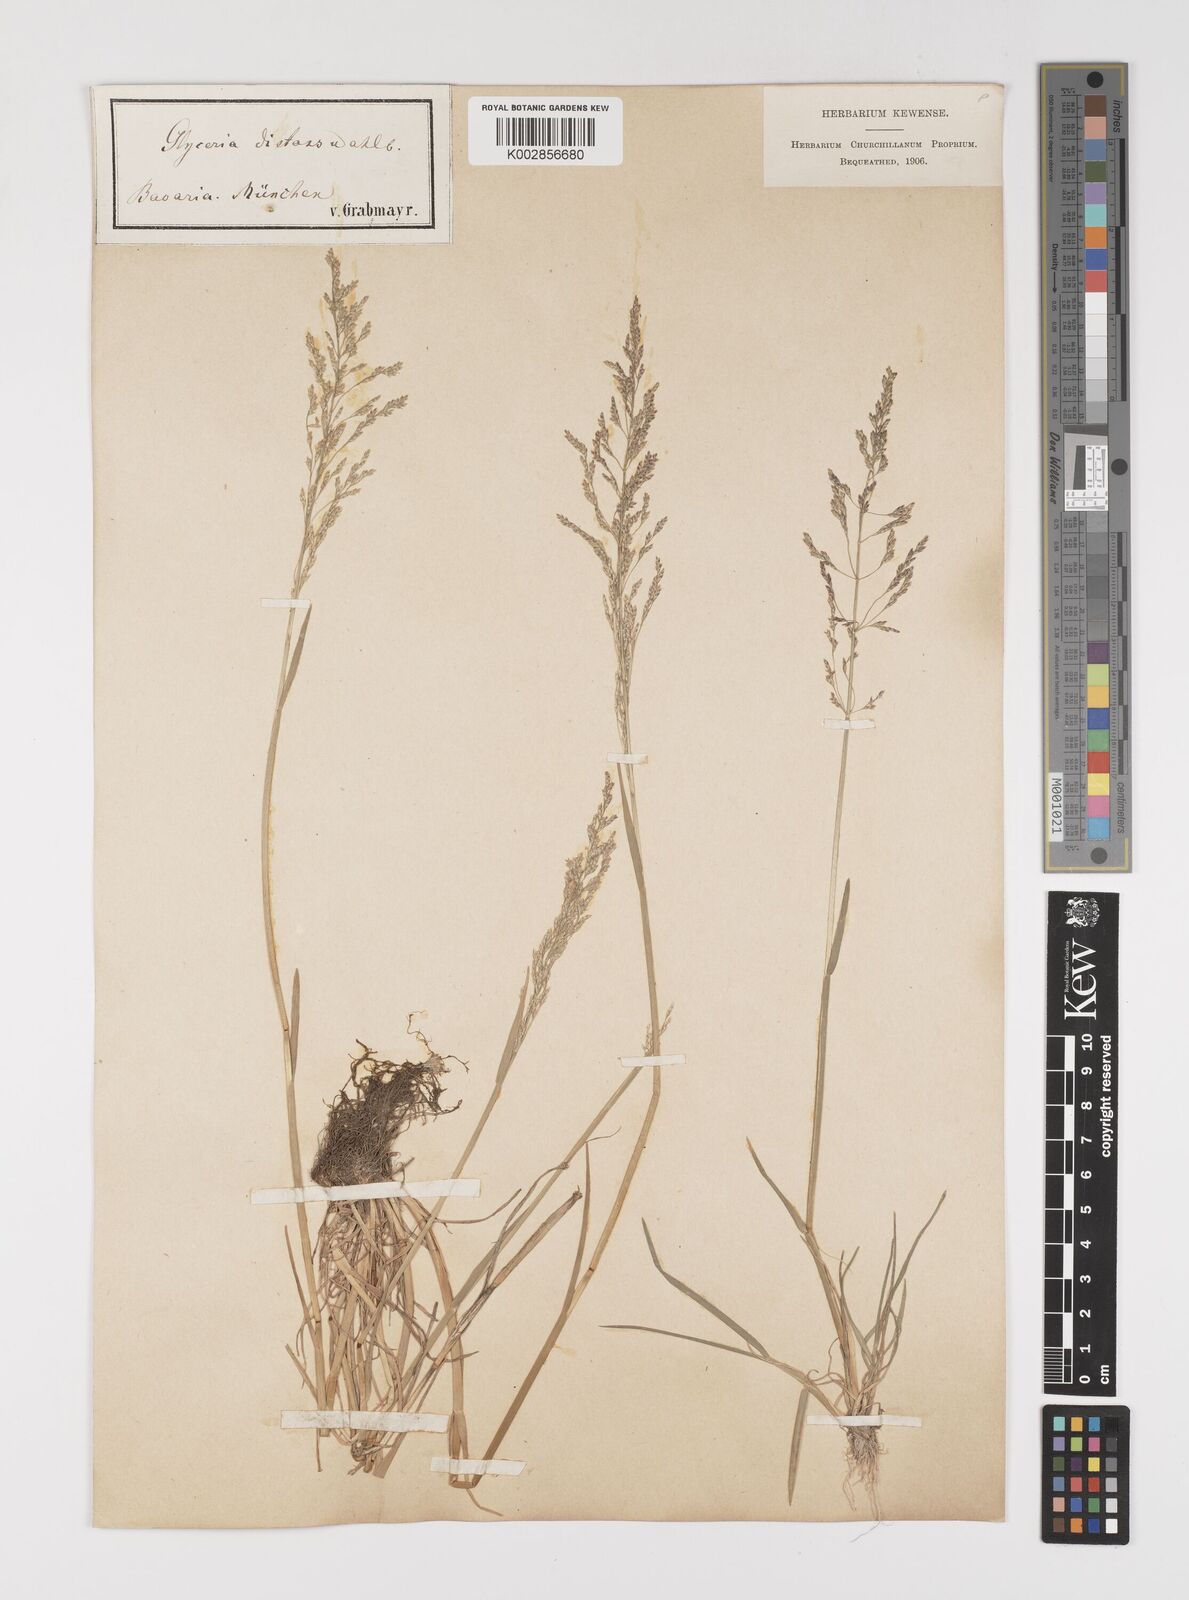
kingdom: Plantae
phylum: Tracheophyta
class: Liliopsida
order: Poales
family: Poaceae
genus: Puccinellia
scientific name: Puccinellia
